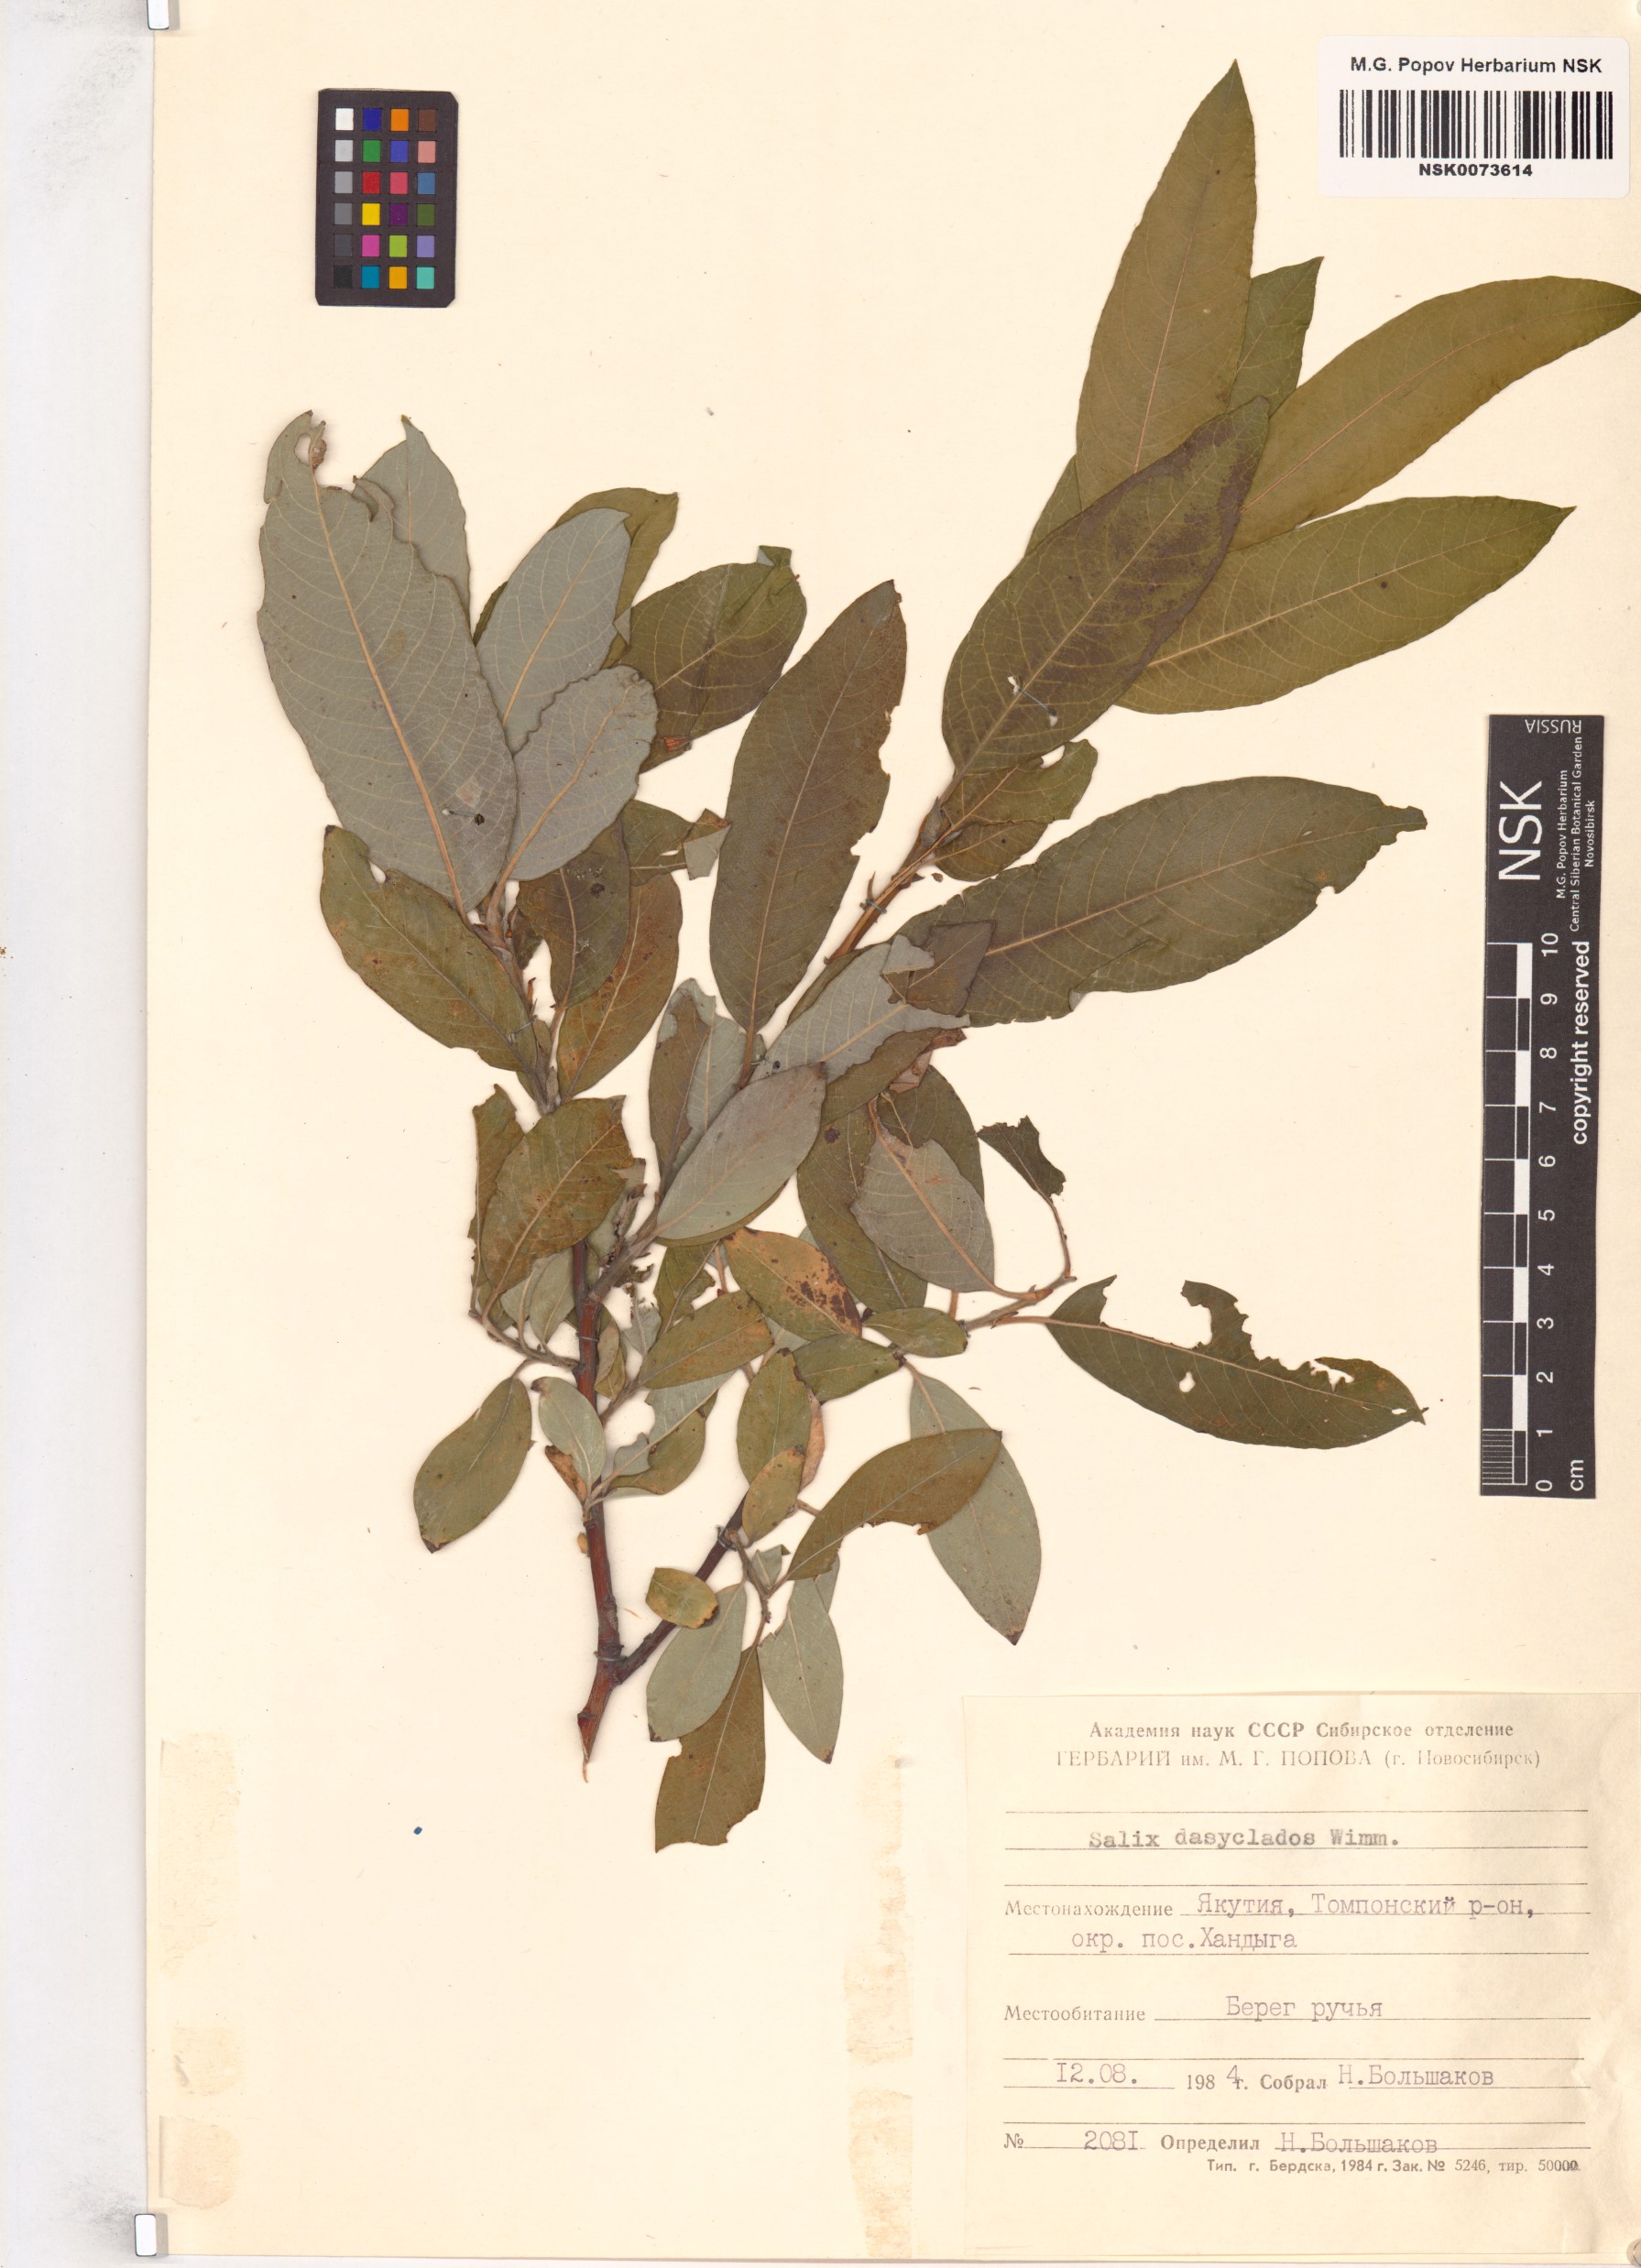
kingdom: Plantae
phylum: Tracheophyta
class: Magnoliopsida
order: Malpighiales
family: Salicaceae
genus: Salix
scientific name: Salix gmelinii
